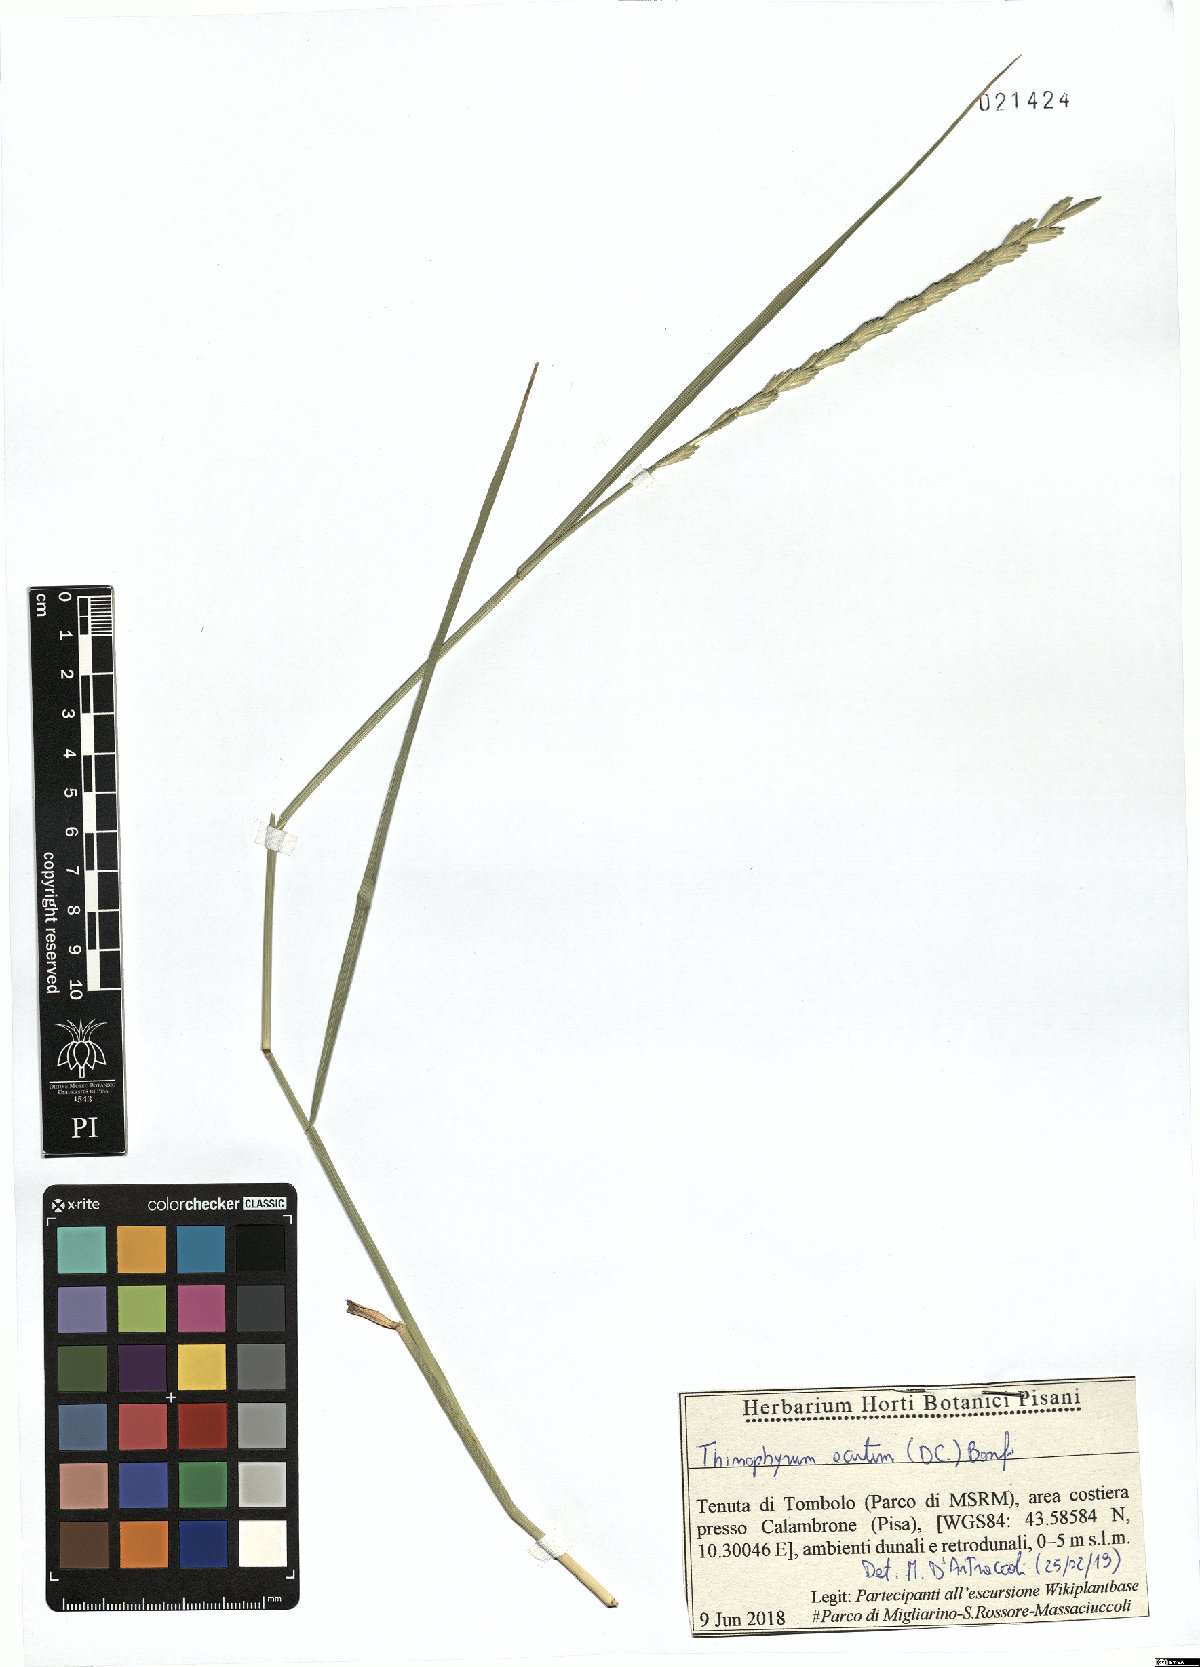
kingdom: Plantae
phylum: Tracheophyta
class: Liliopsida
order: Poales
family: Poaceae
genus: Thinopyrum
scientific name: Thinopyrum acutum
